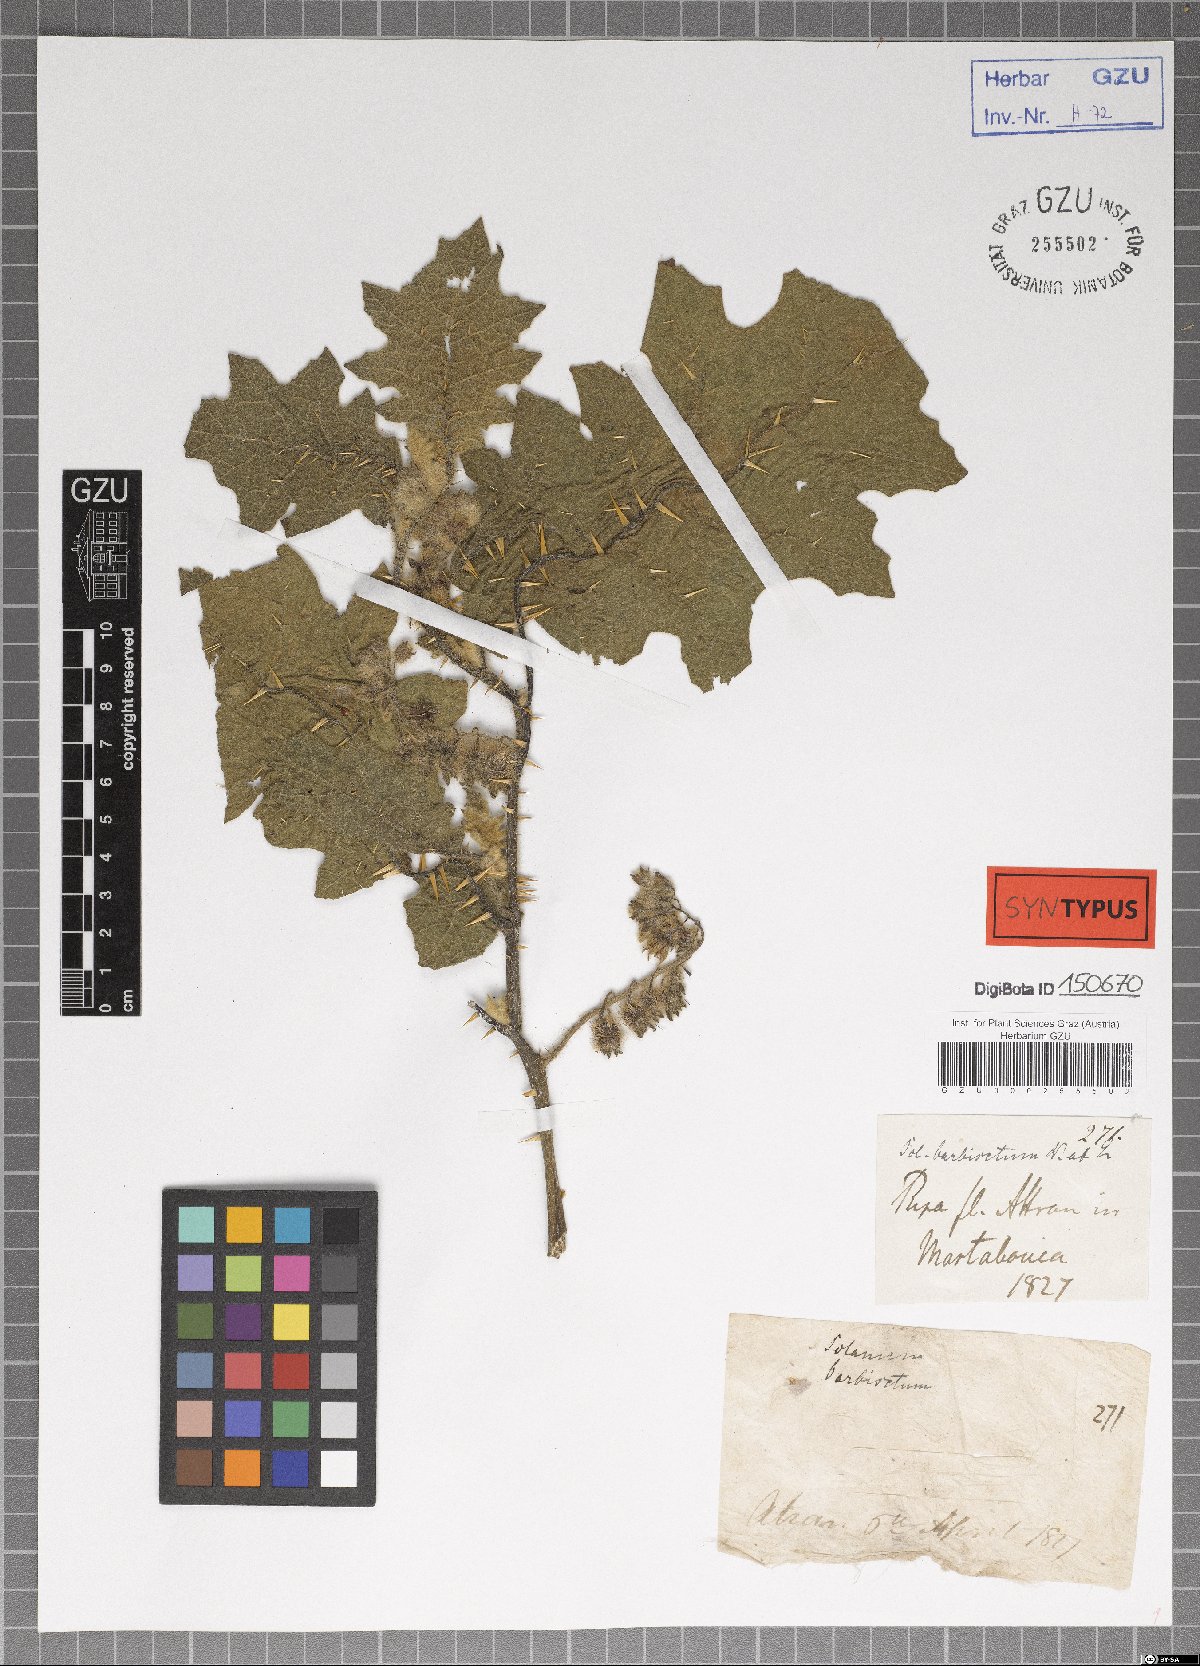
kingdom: Plantae
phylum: Tracheophyta
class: Magnoliopsida
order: Solanales
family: Solanaceae
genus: Solanum
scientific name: Solanum barbisetum
